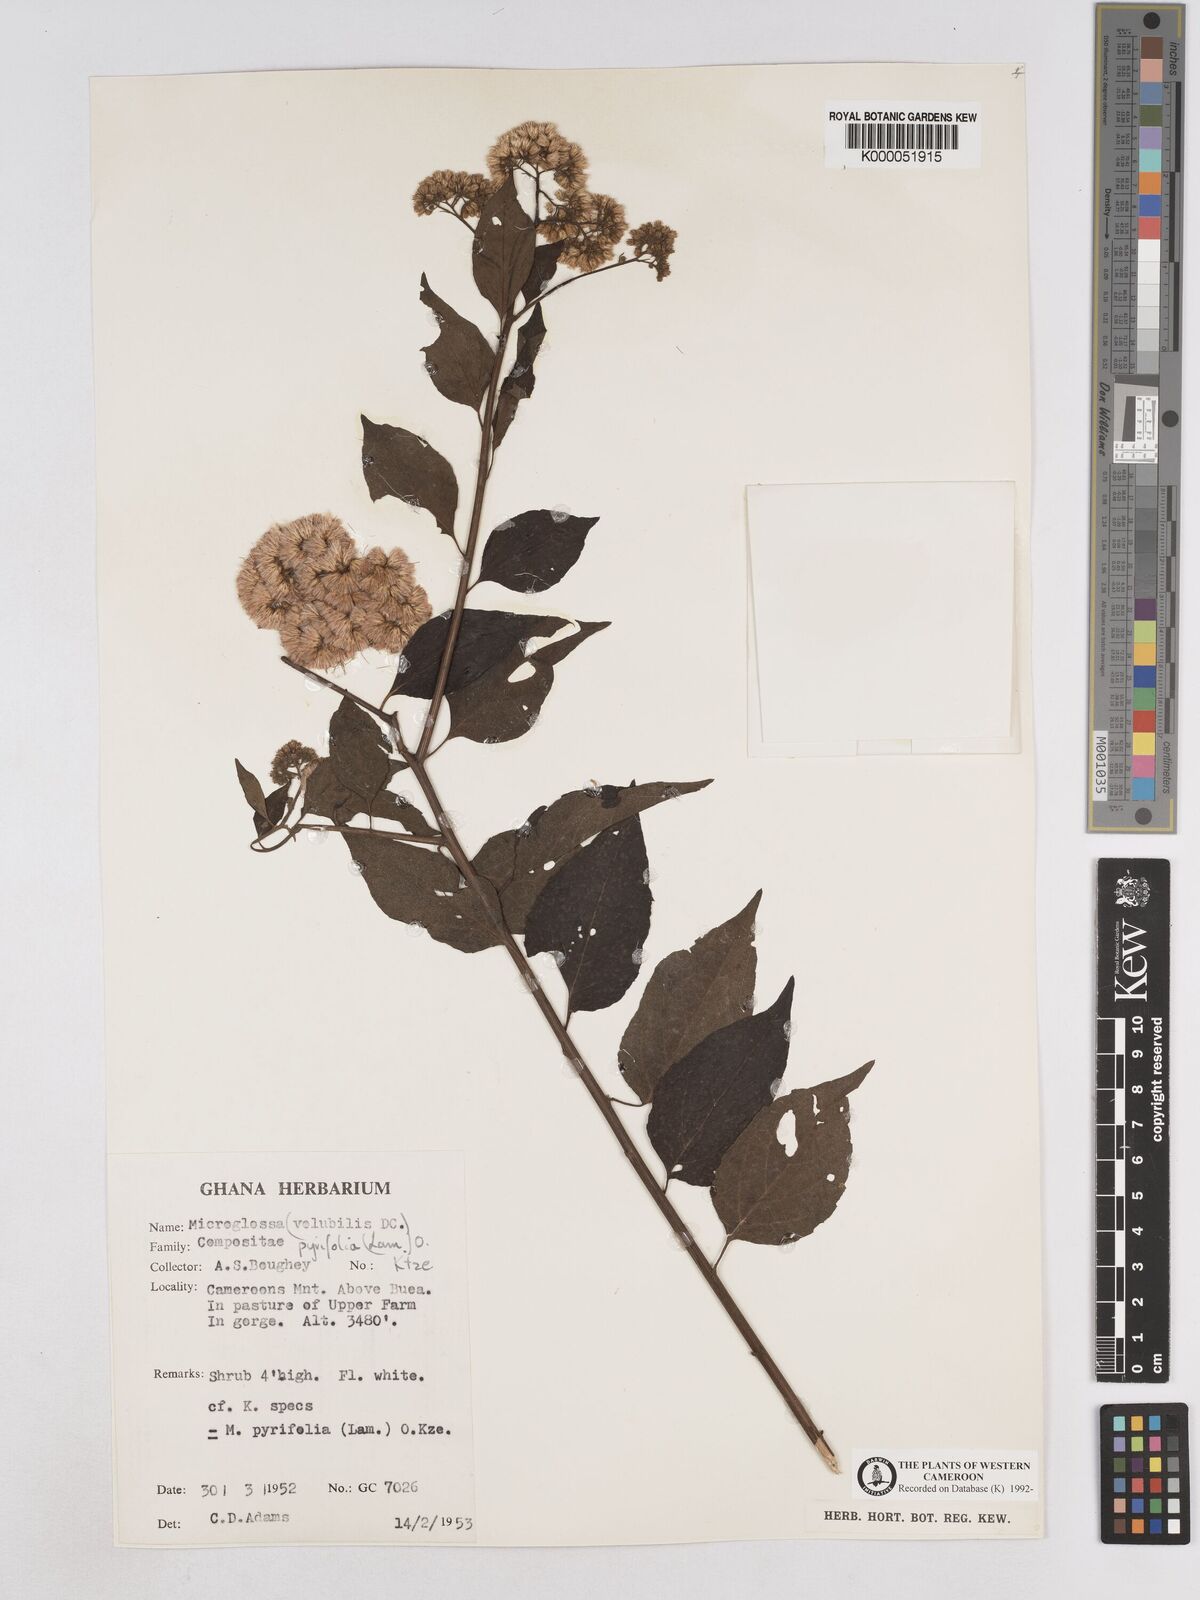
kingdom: Plantae
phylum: Tracheophyta
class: Magnoliopsida
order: Asterales
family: Asteraceae
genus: Microglossa
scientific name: Microglossa pyrifolia
